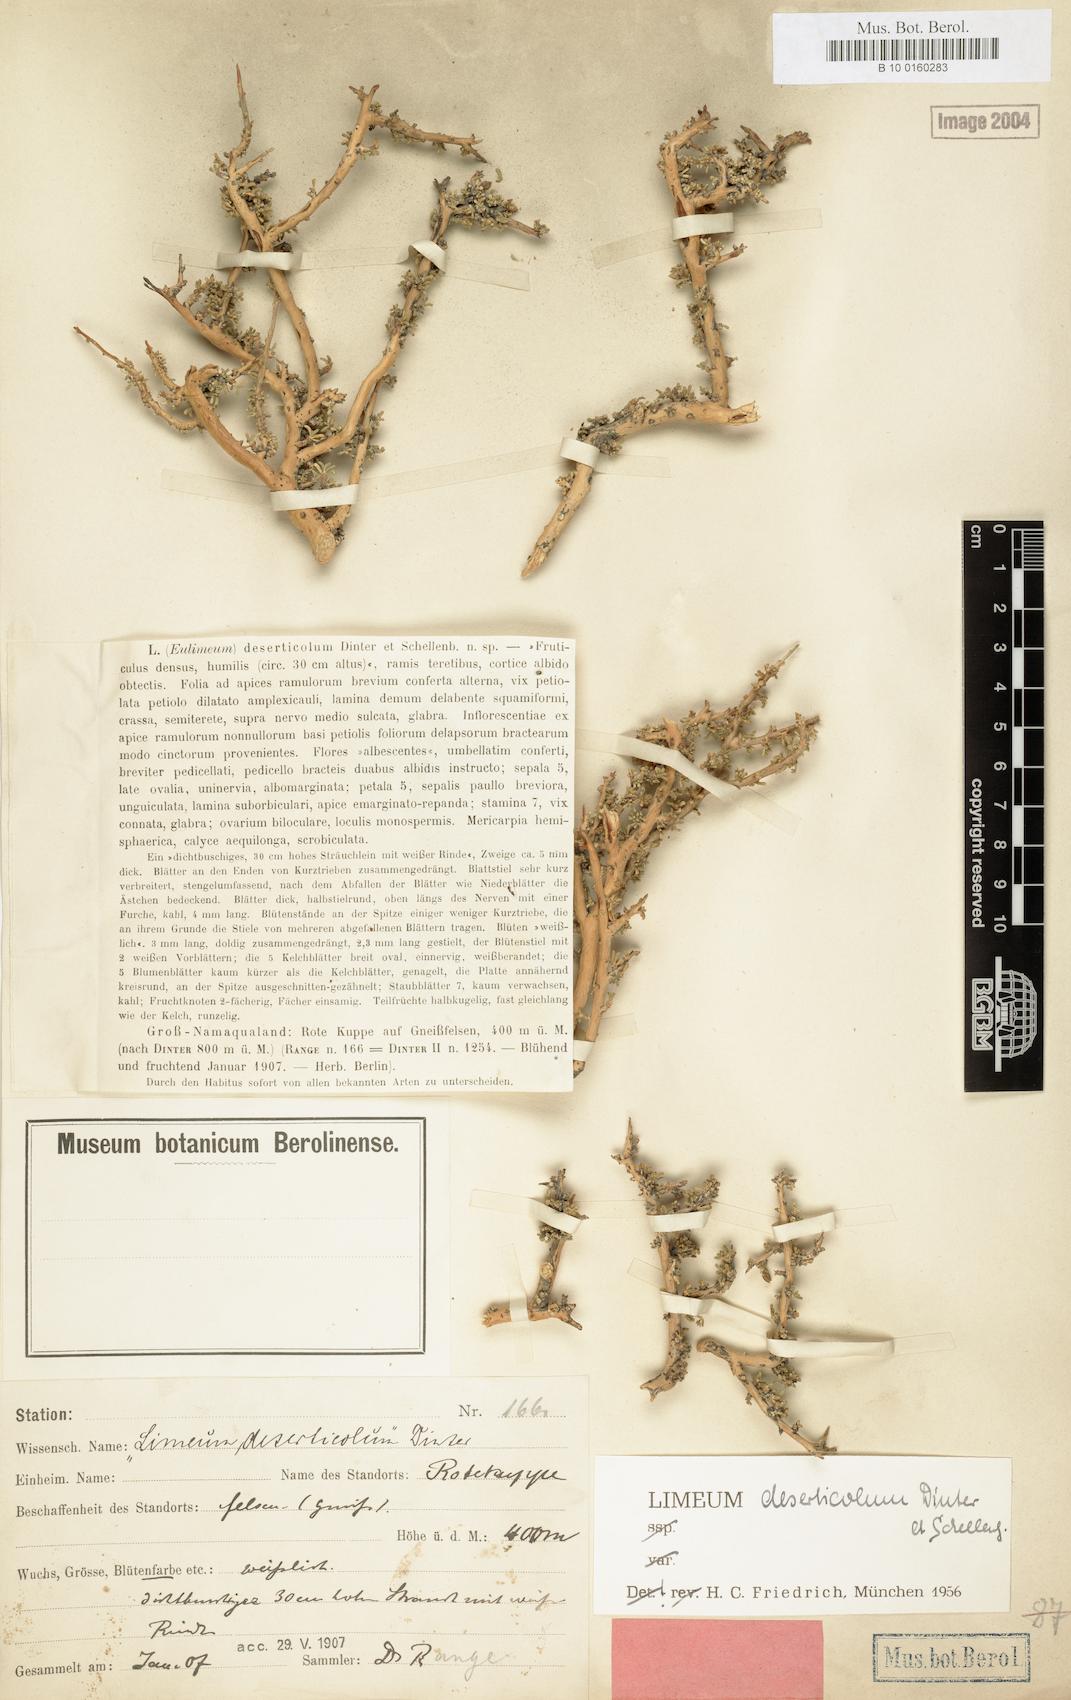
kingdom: Plantae
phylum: Tracheophyta
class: Magnoliopsida
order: Caryophyllales
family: Limeaceae
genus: Limeum
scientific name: Limeum deserticolum
